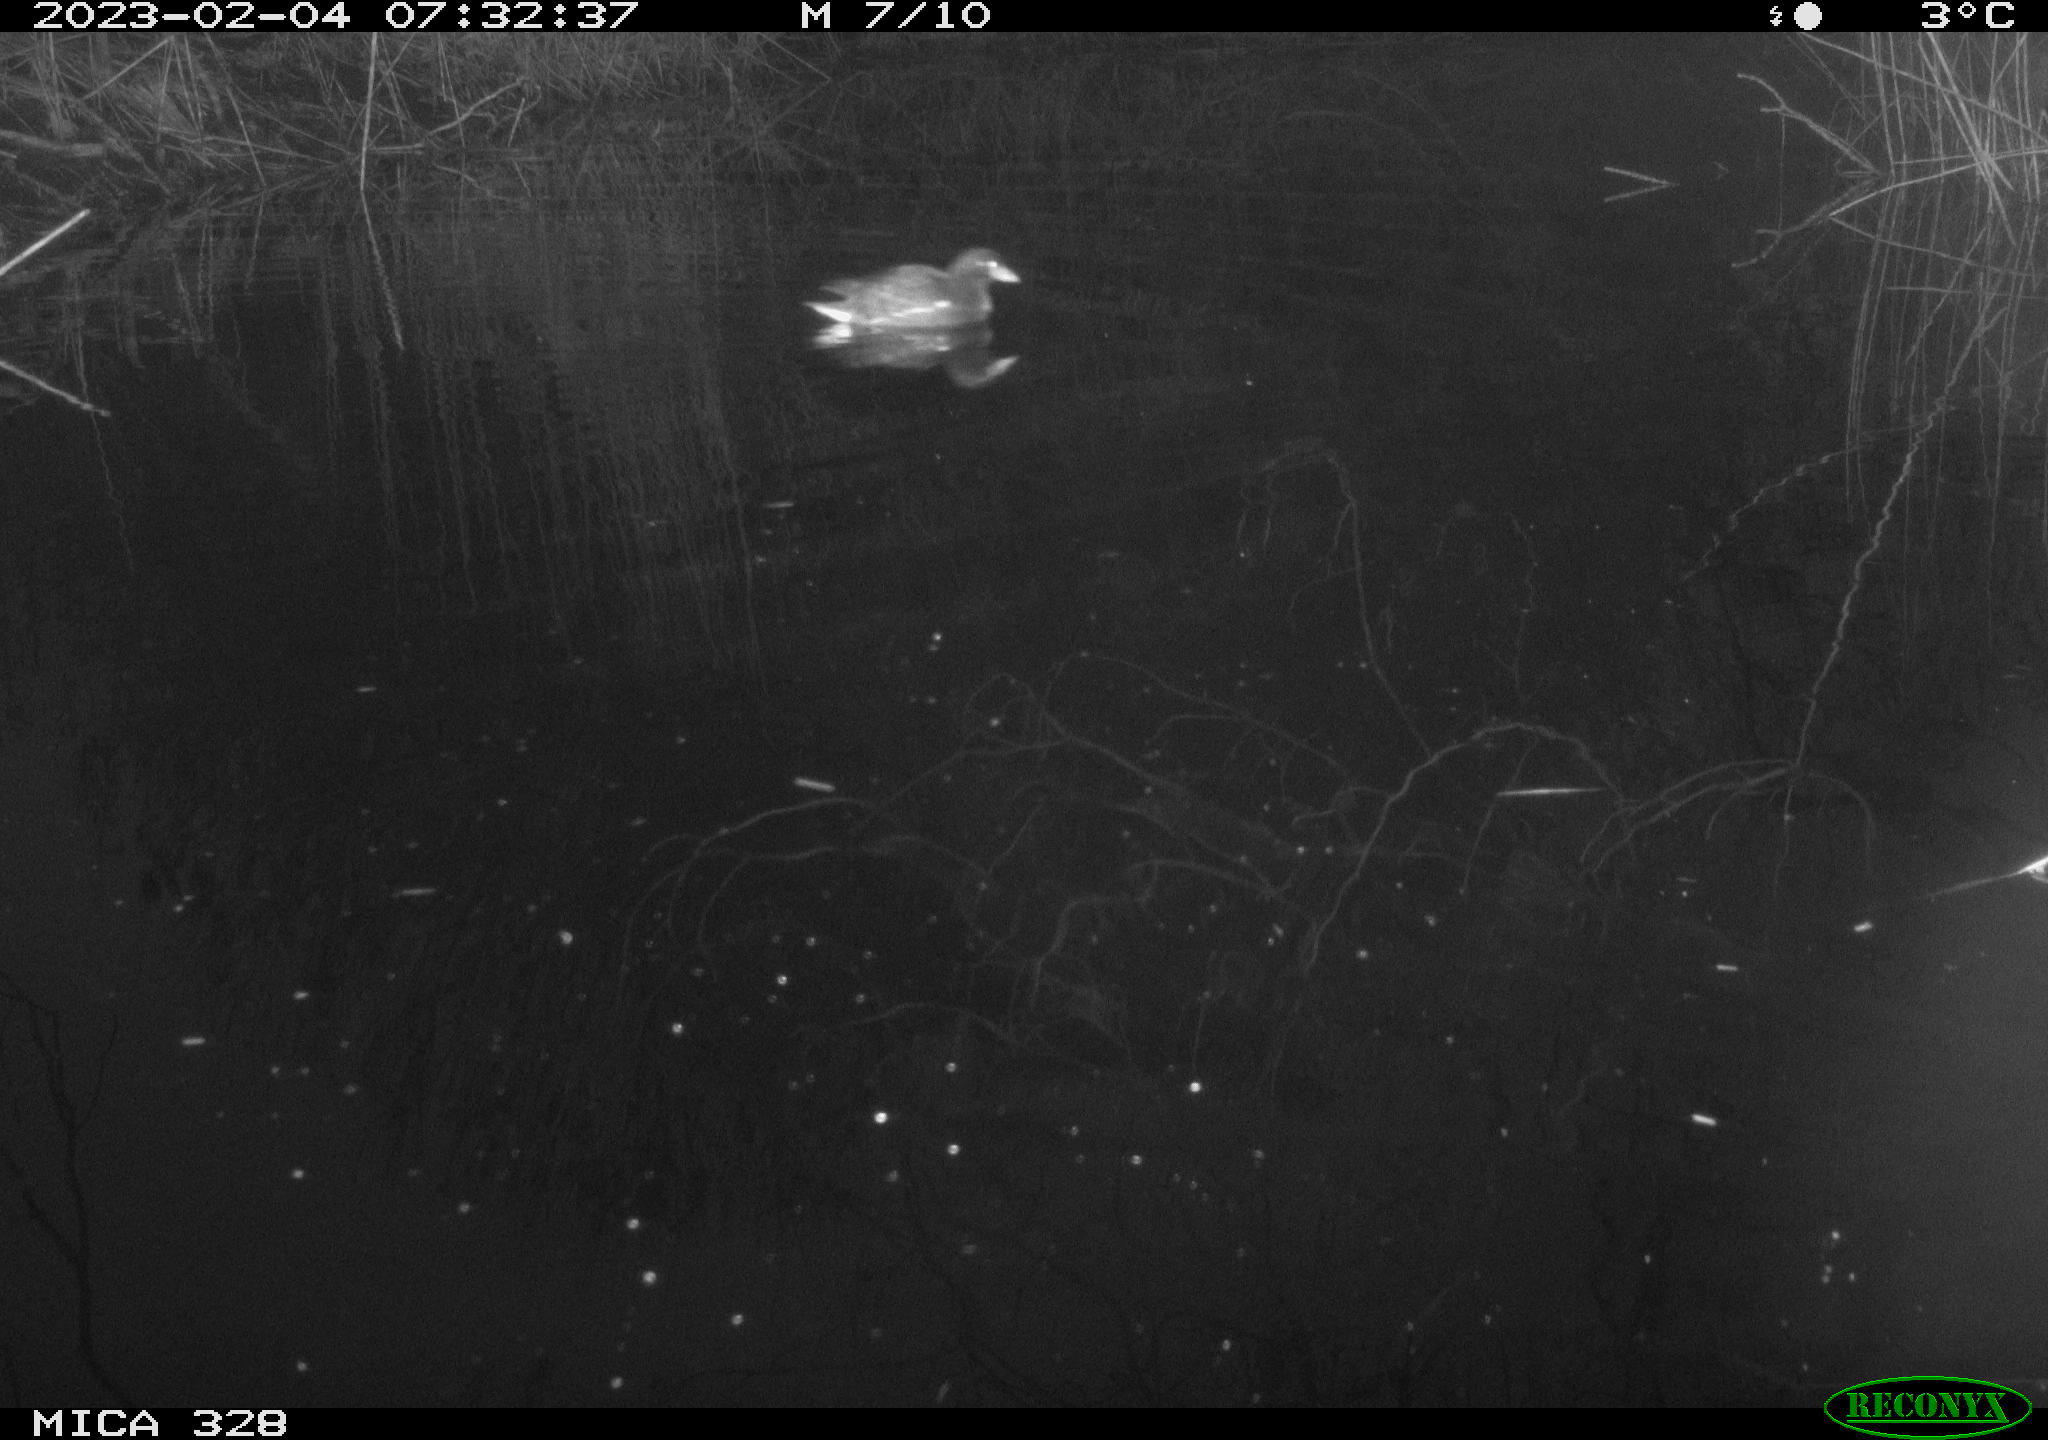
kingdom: Animalia
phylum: Chordata
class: Aves
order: Gruiformes
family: Rallidae
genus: Gallinula
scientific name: Gallinula chloropus
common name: Common moorhen
